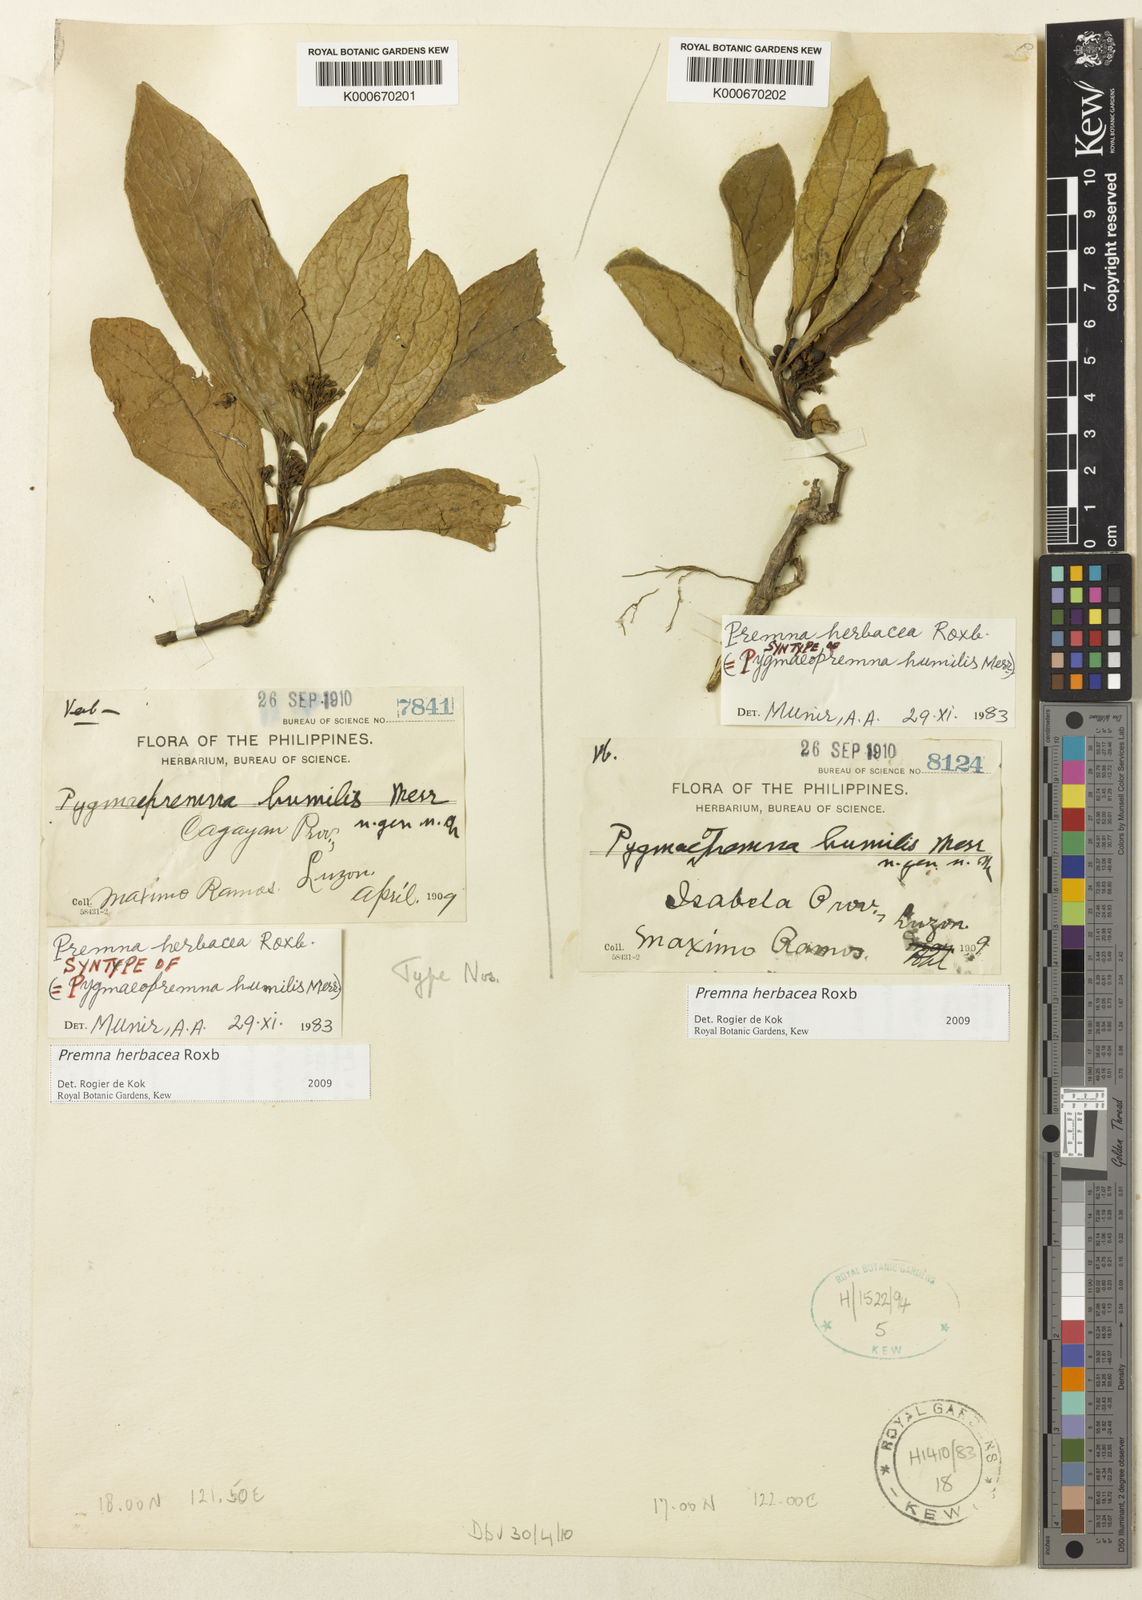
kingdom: Plantae
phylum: Tracheophyta
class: Magnoliopsida
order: Lamiales
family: Lamiaceae
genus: Premna
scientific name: Premna herbacea
